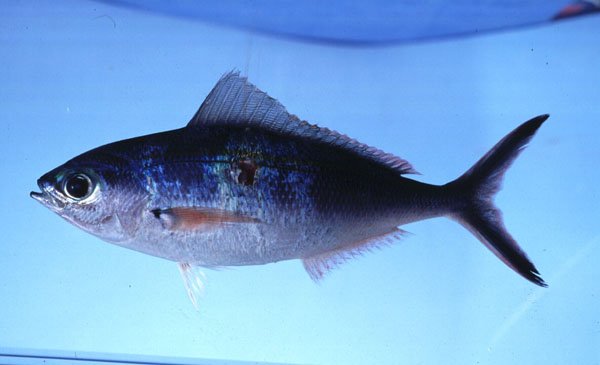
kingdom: Animalia
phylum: Chordata
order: Perciformes
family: Caesionidae
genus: Caesio
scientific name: Caesio varilineata
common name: Variable-lined fusilier
